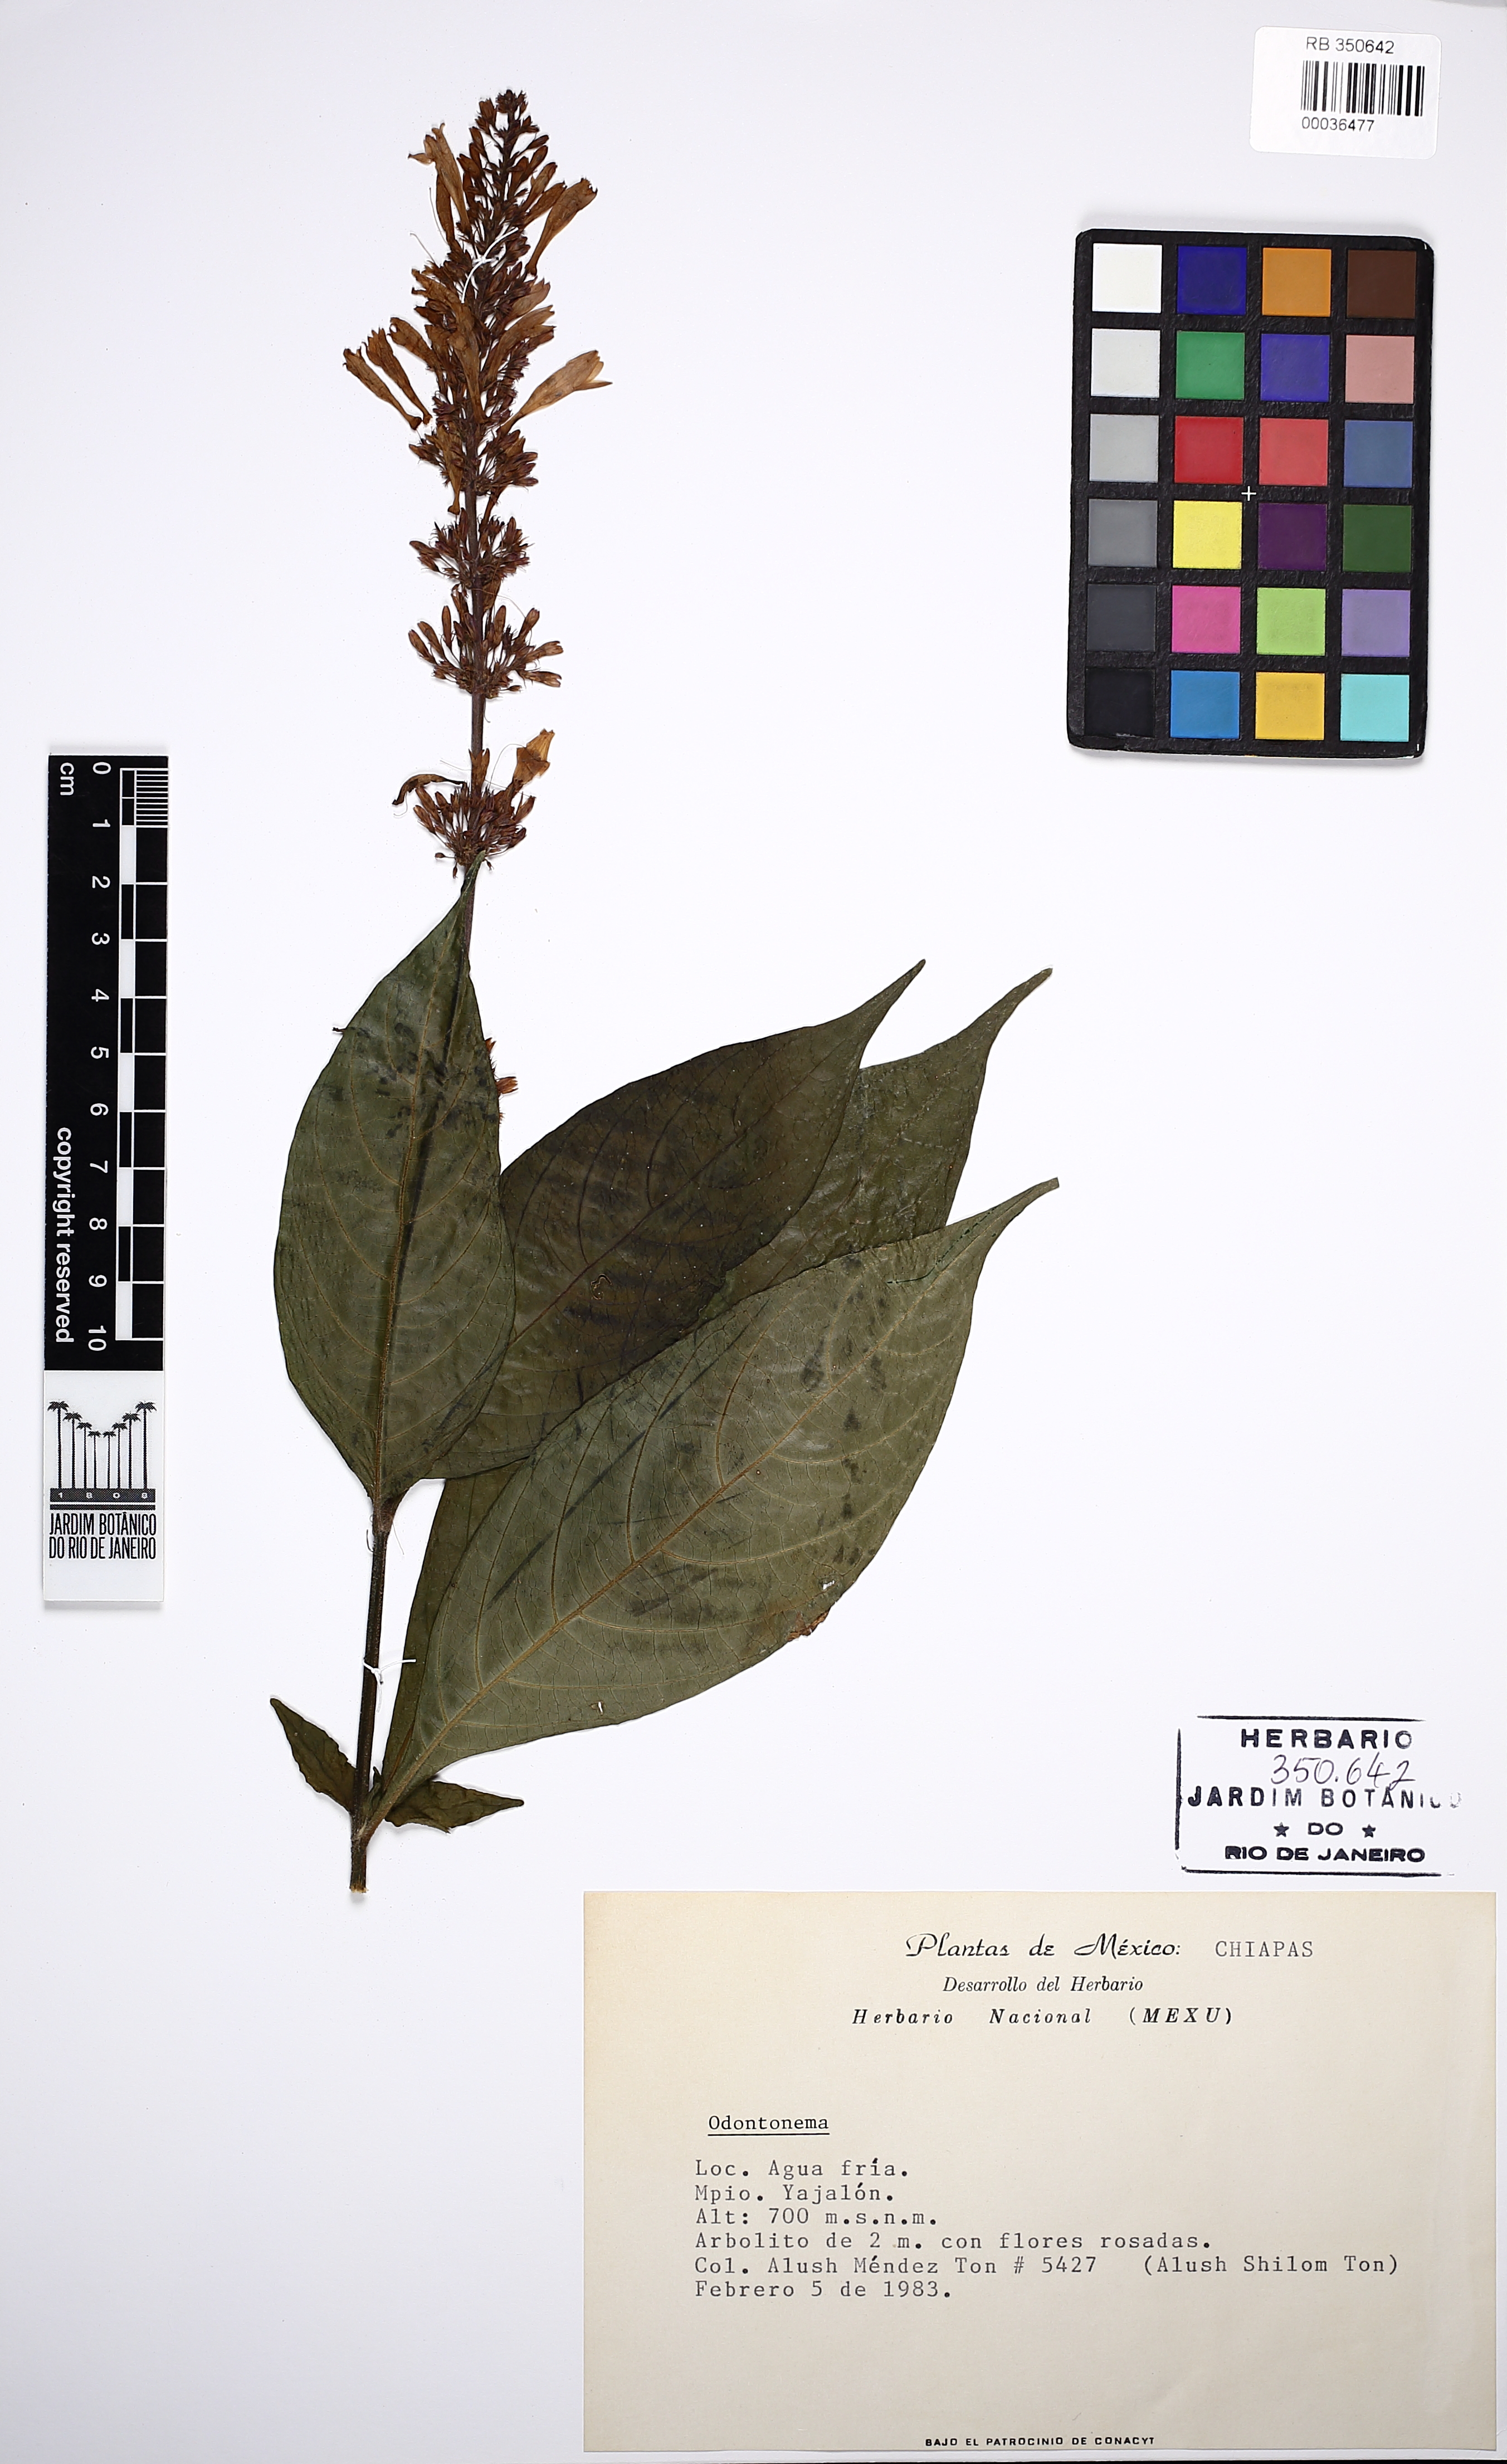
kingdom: Plantae
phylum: Tracheophyta
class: Magnoliopsida
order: Lamiales
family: Acanthaceae
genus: Odontonema
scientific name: Odontonema
